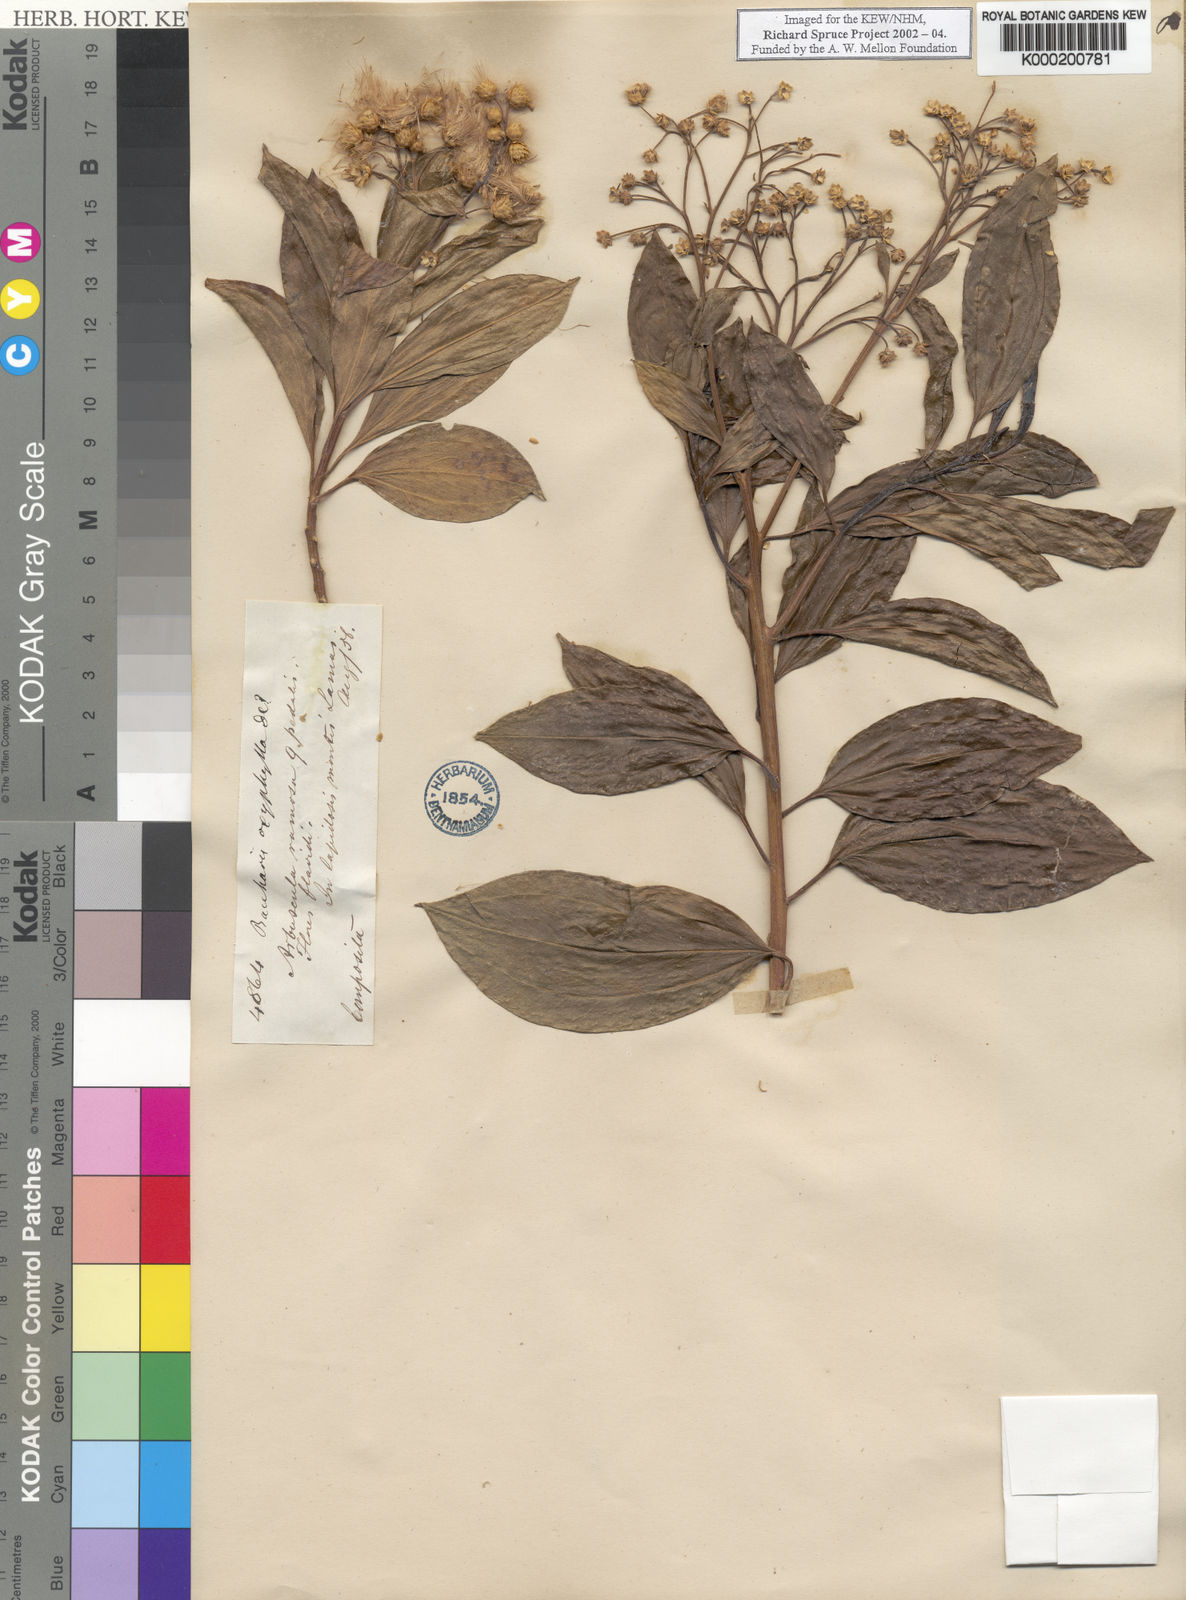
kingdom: Plantae
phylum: Tracheophyta
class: Magnoliopsida
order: Asterales
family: Asteraceae
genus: Baccharis
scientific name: Baccharis pedunculata
